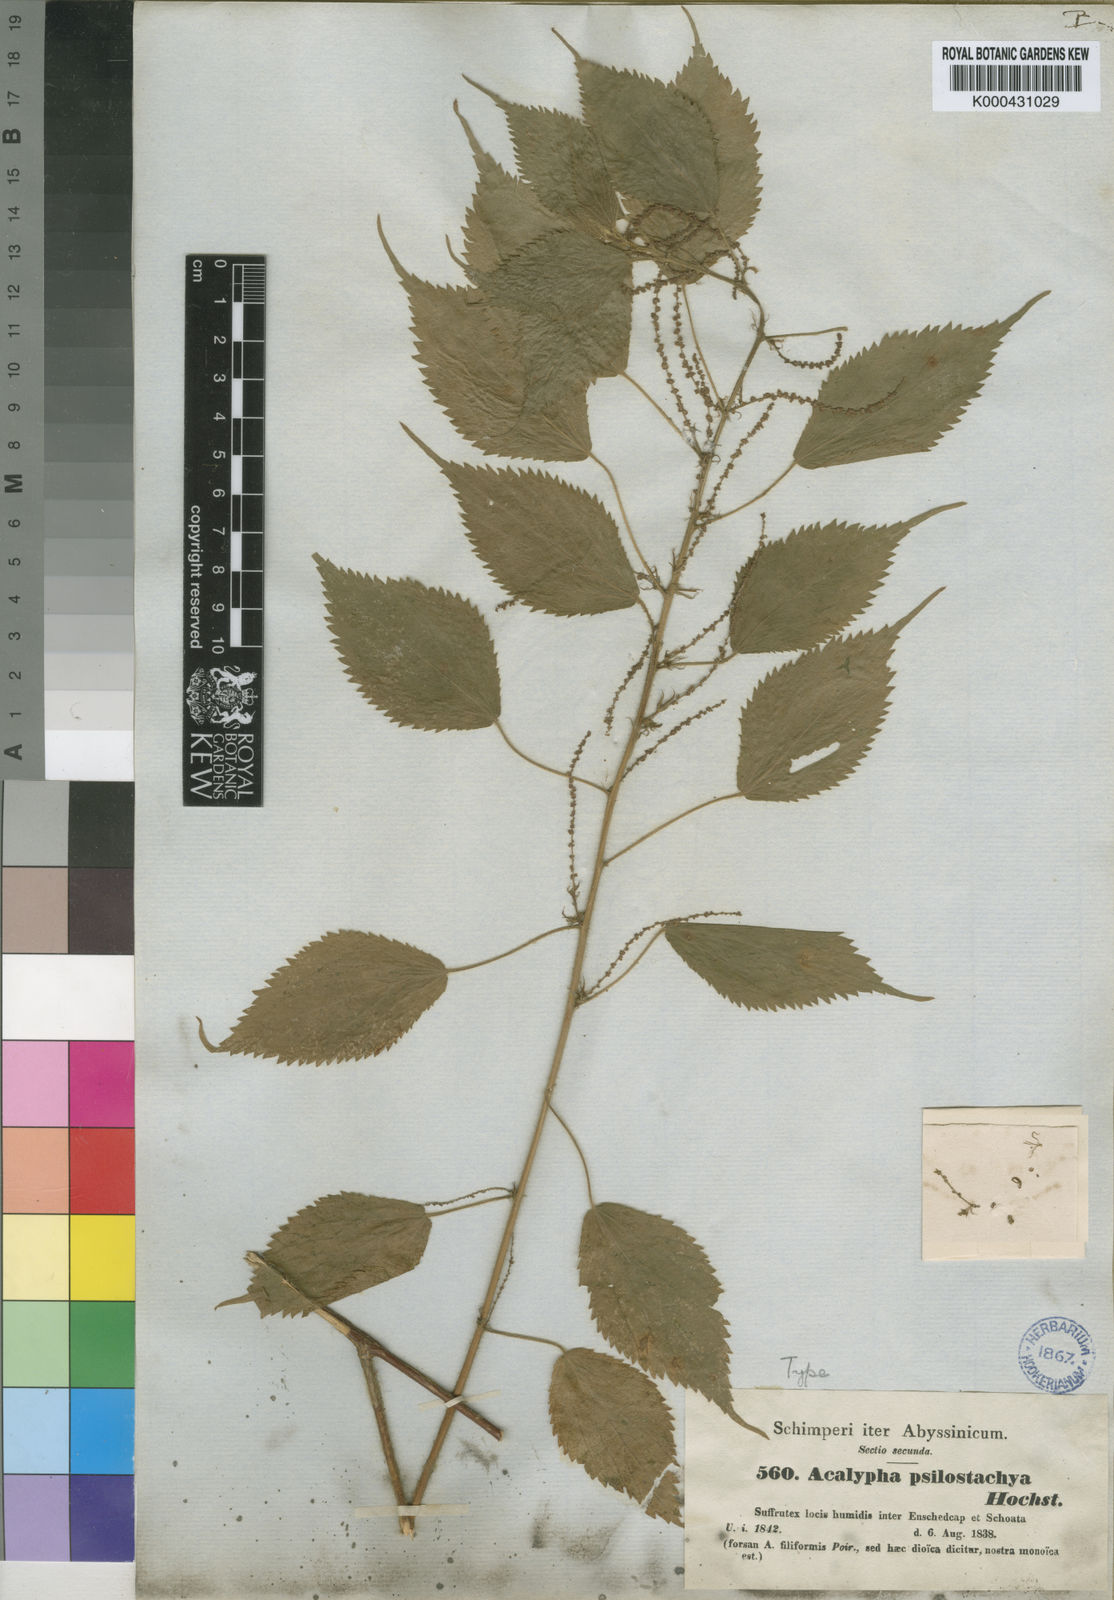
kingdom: Plantae
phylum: Tracheophyta
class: Magnoliopsida
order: Malpighiales
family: Euphorbiaceae
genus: Acalypha
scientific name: Acalypha psilostachya
